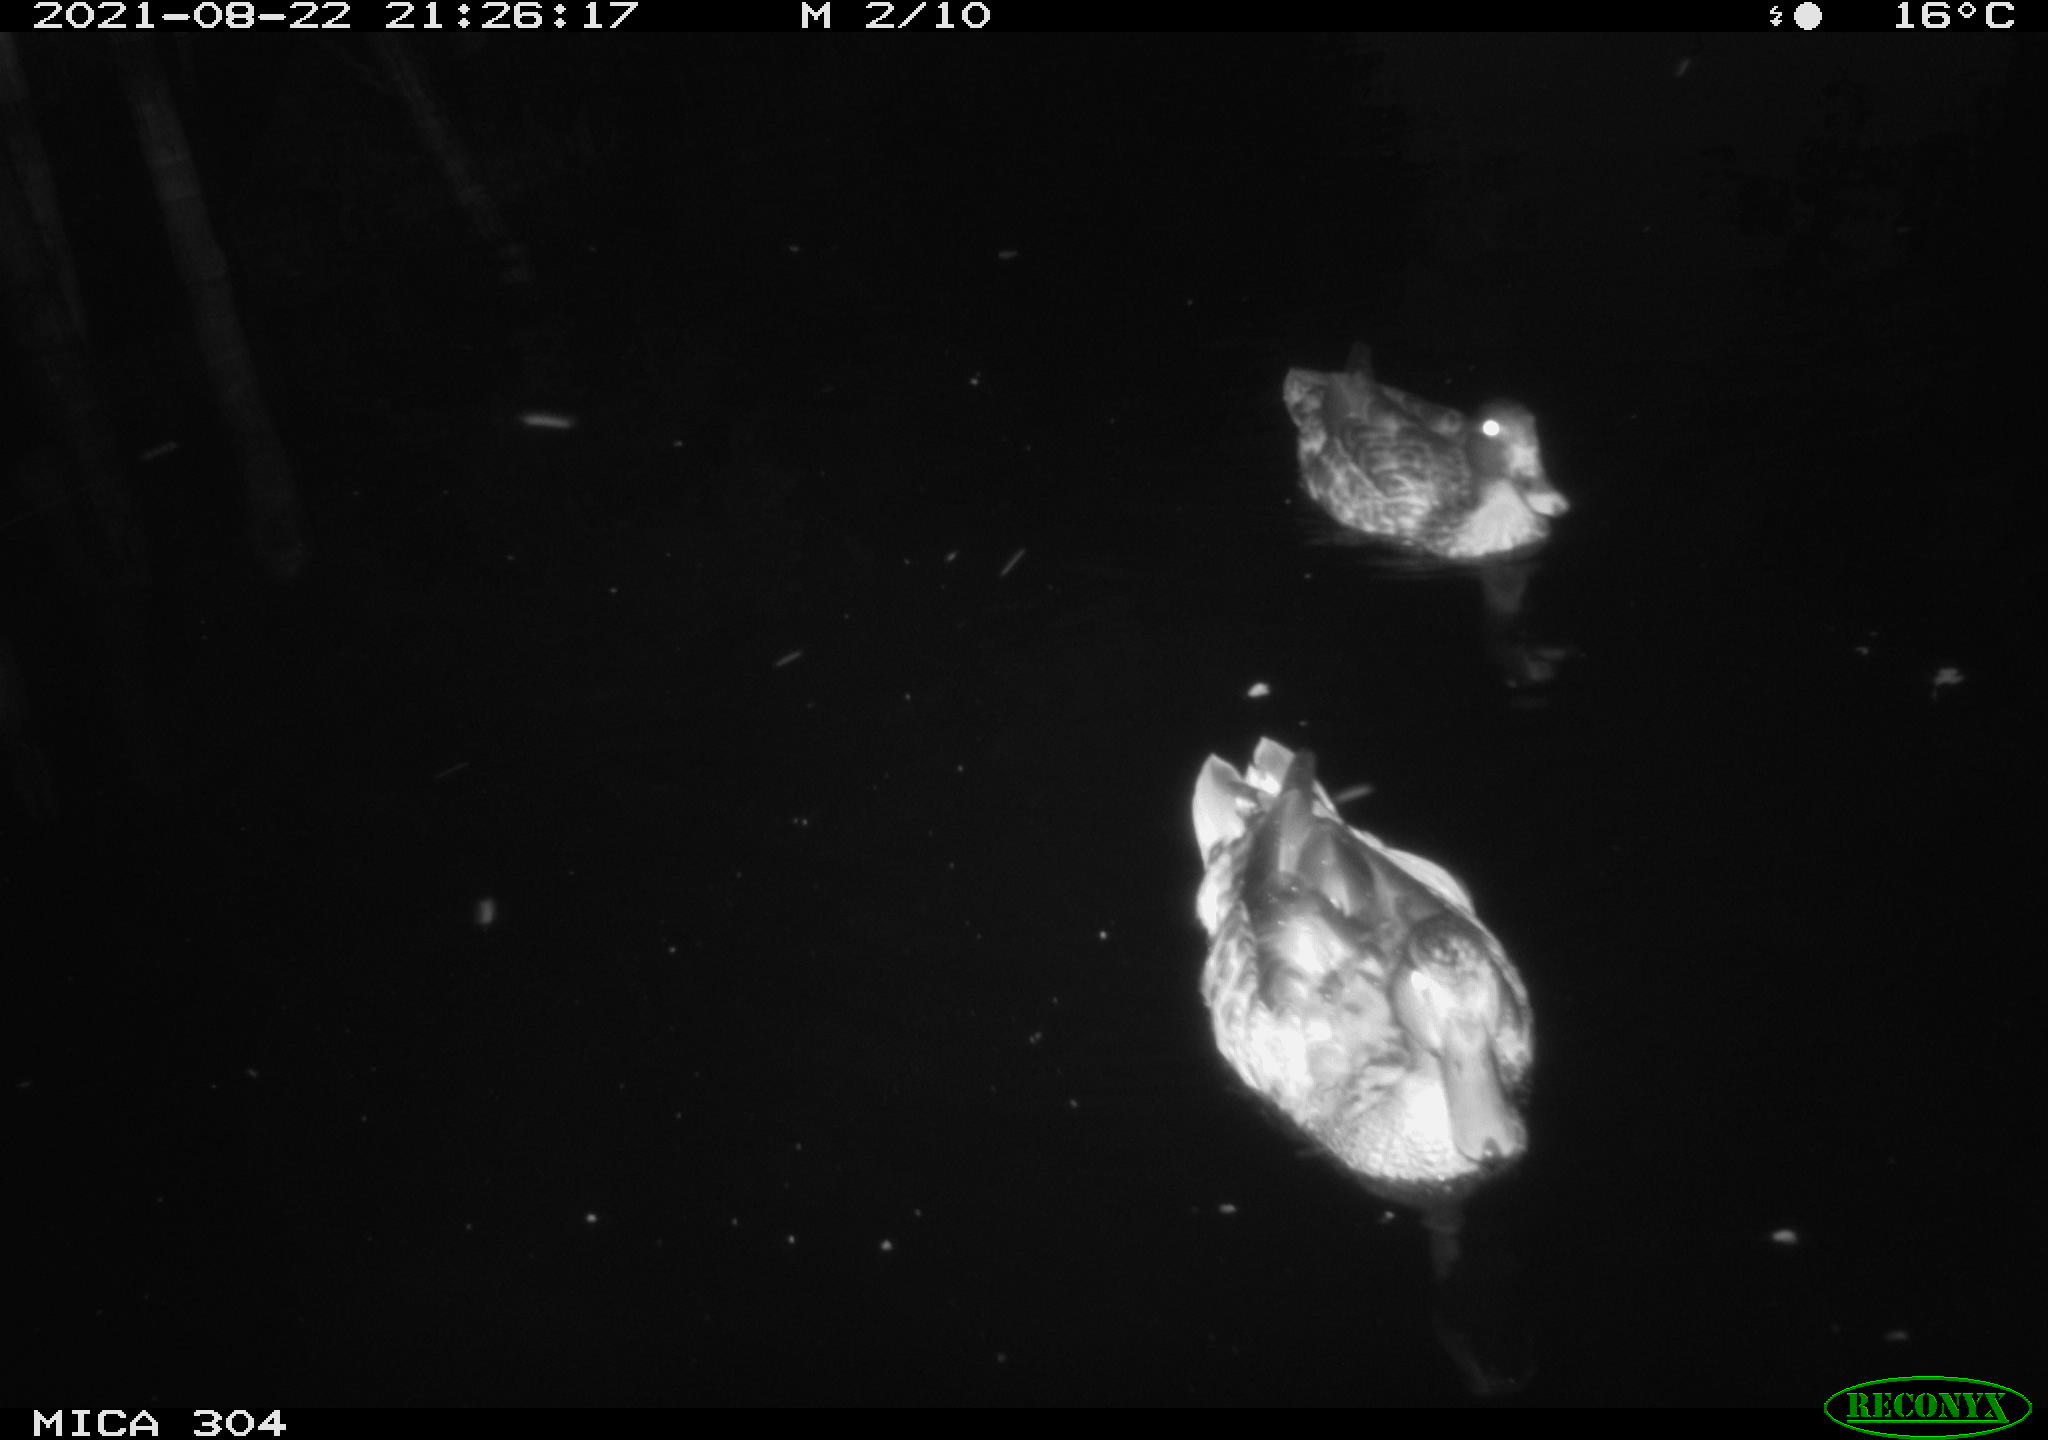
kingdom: Animalia
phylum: Chordata
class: Aves
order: Anseriformes
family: Anatidae
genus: Anas
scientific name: Anas platyrhynchos
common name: Mallard
